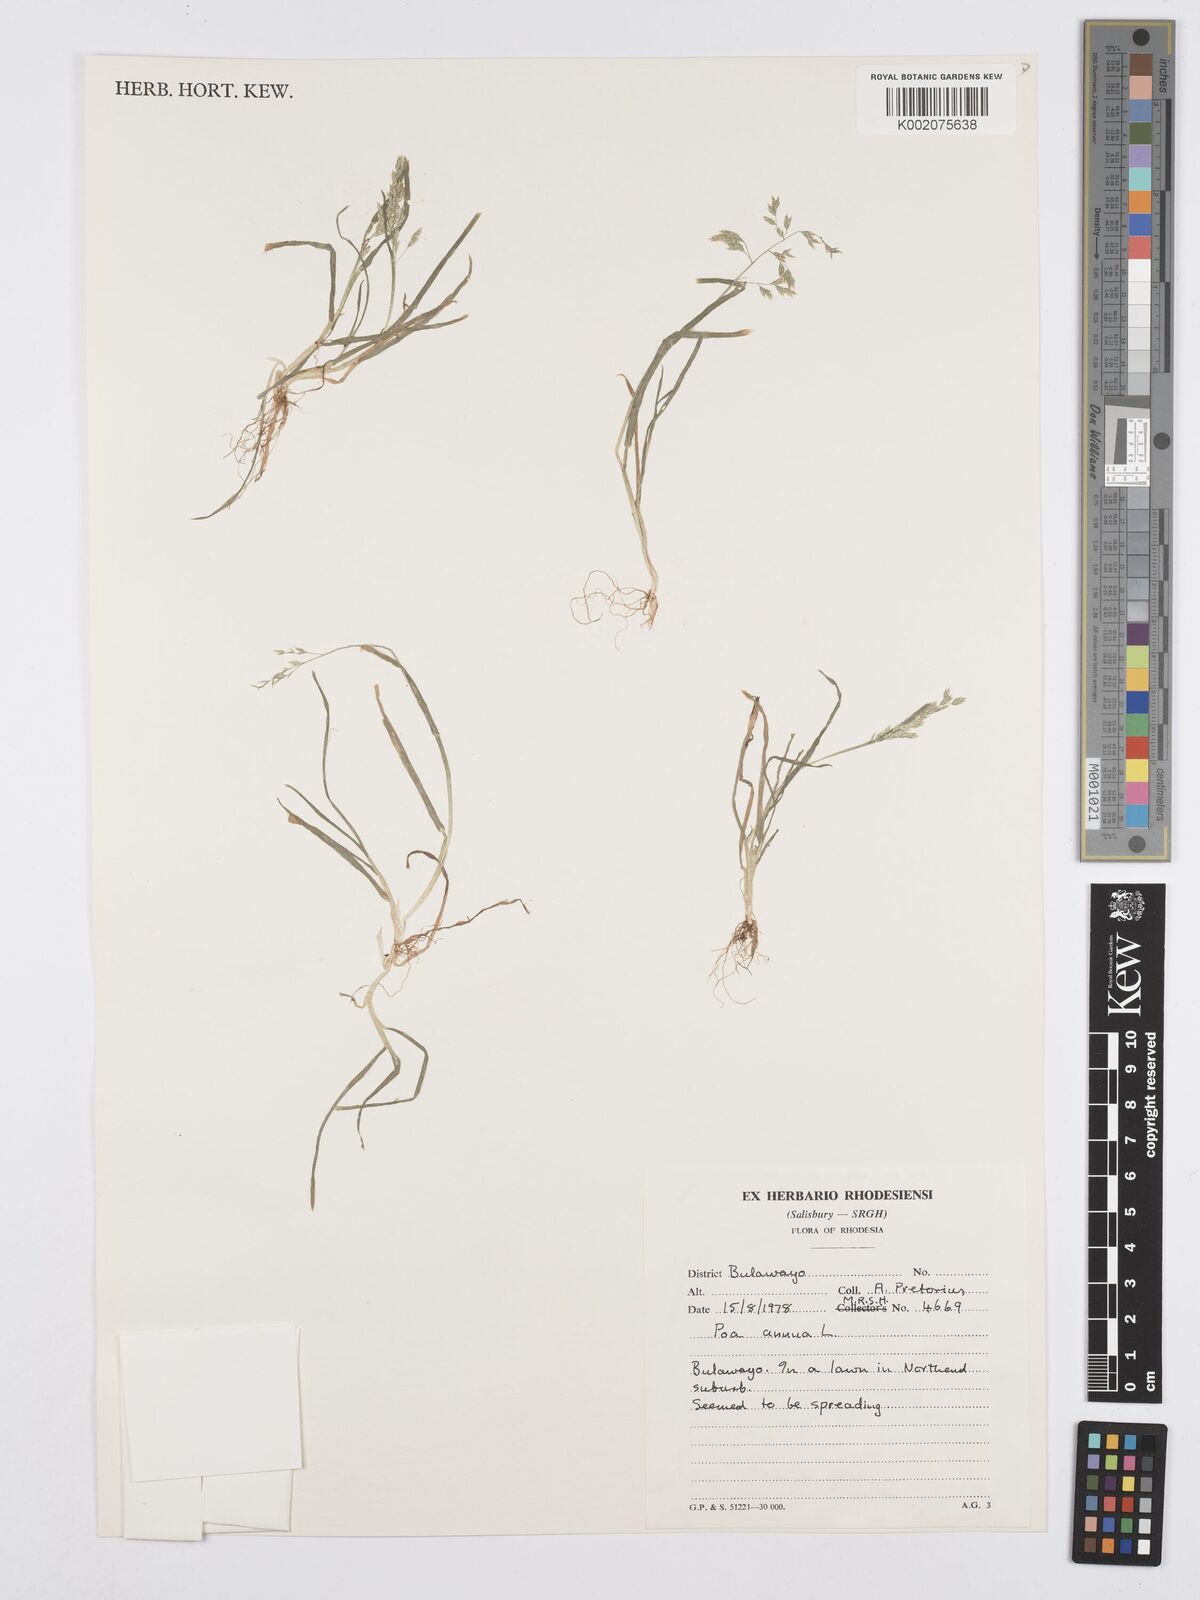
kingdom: Plantae
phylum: Tracheophyta
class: Liliopsida
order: Poales
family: Poaceae
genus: Poa
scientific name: Poa annua
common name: Annual bluegrass
